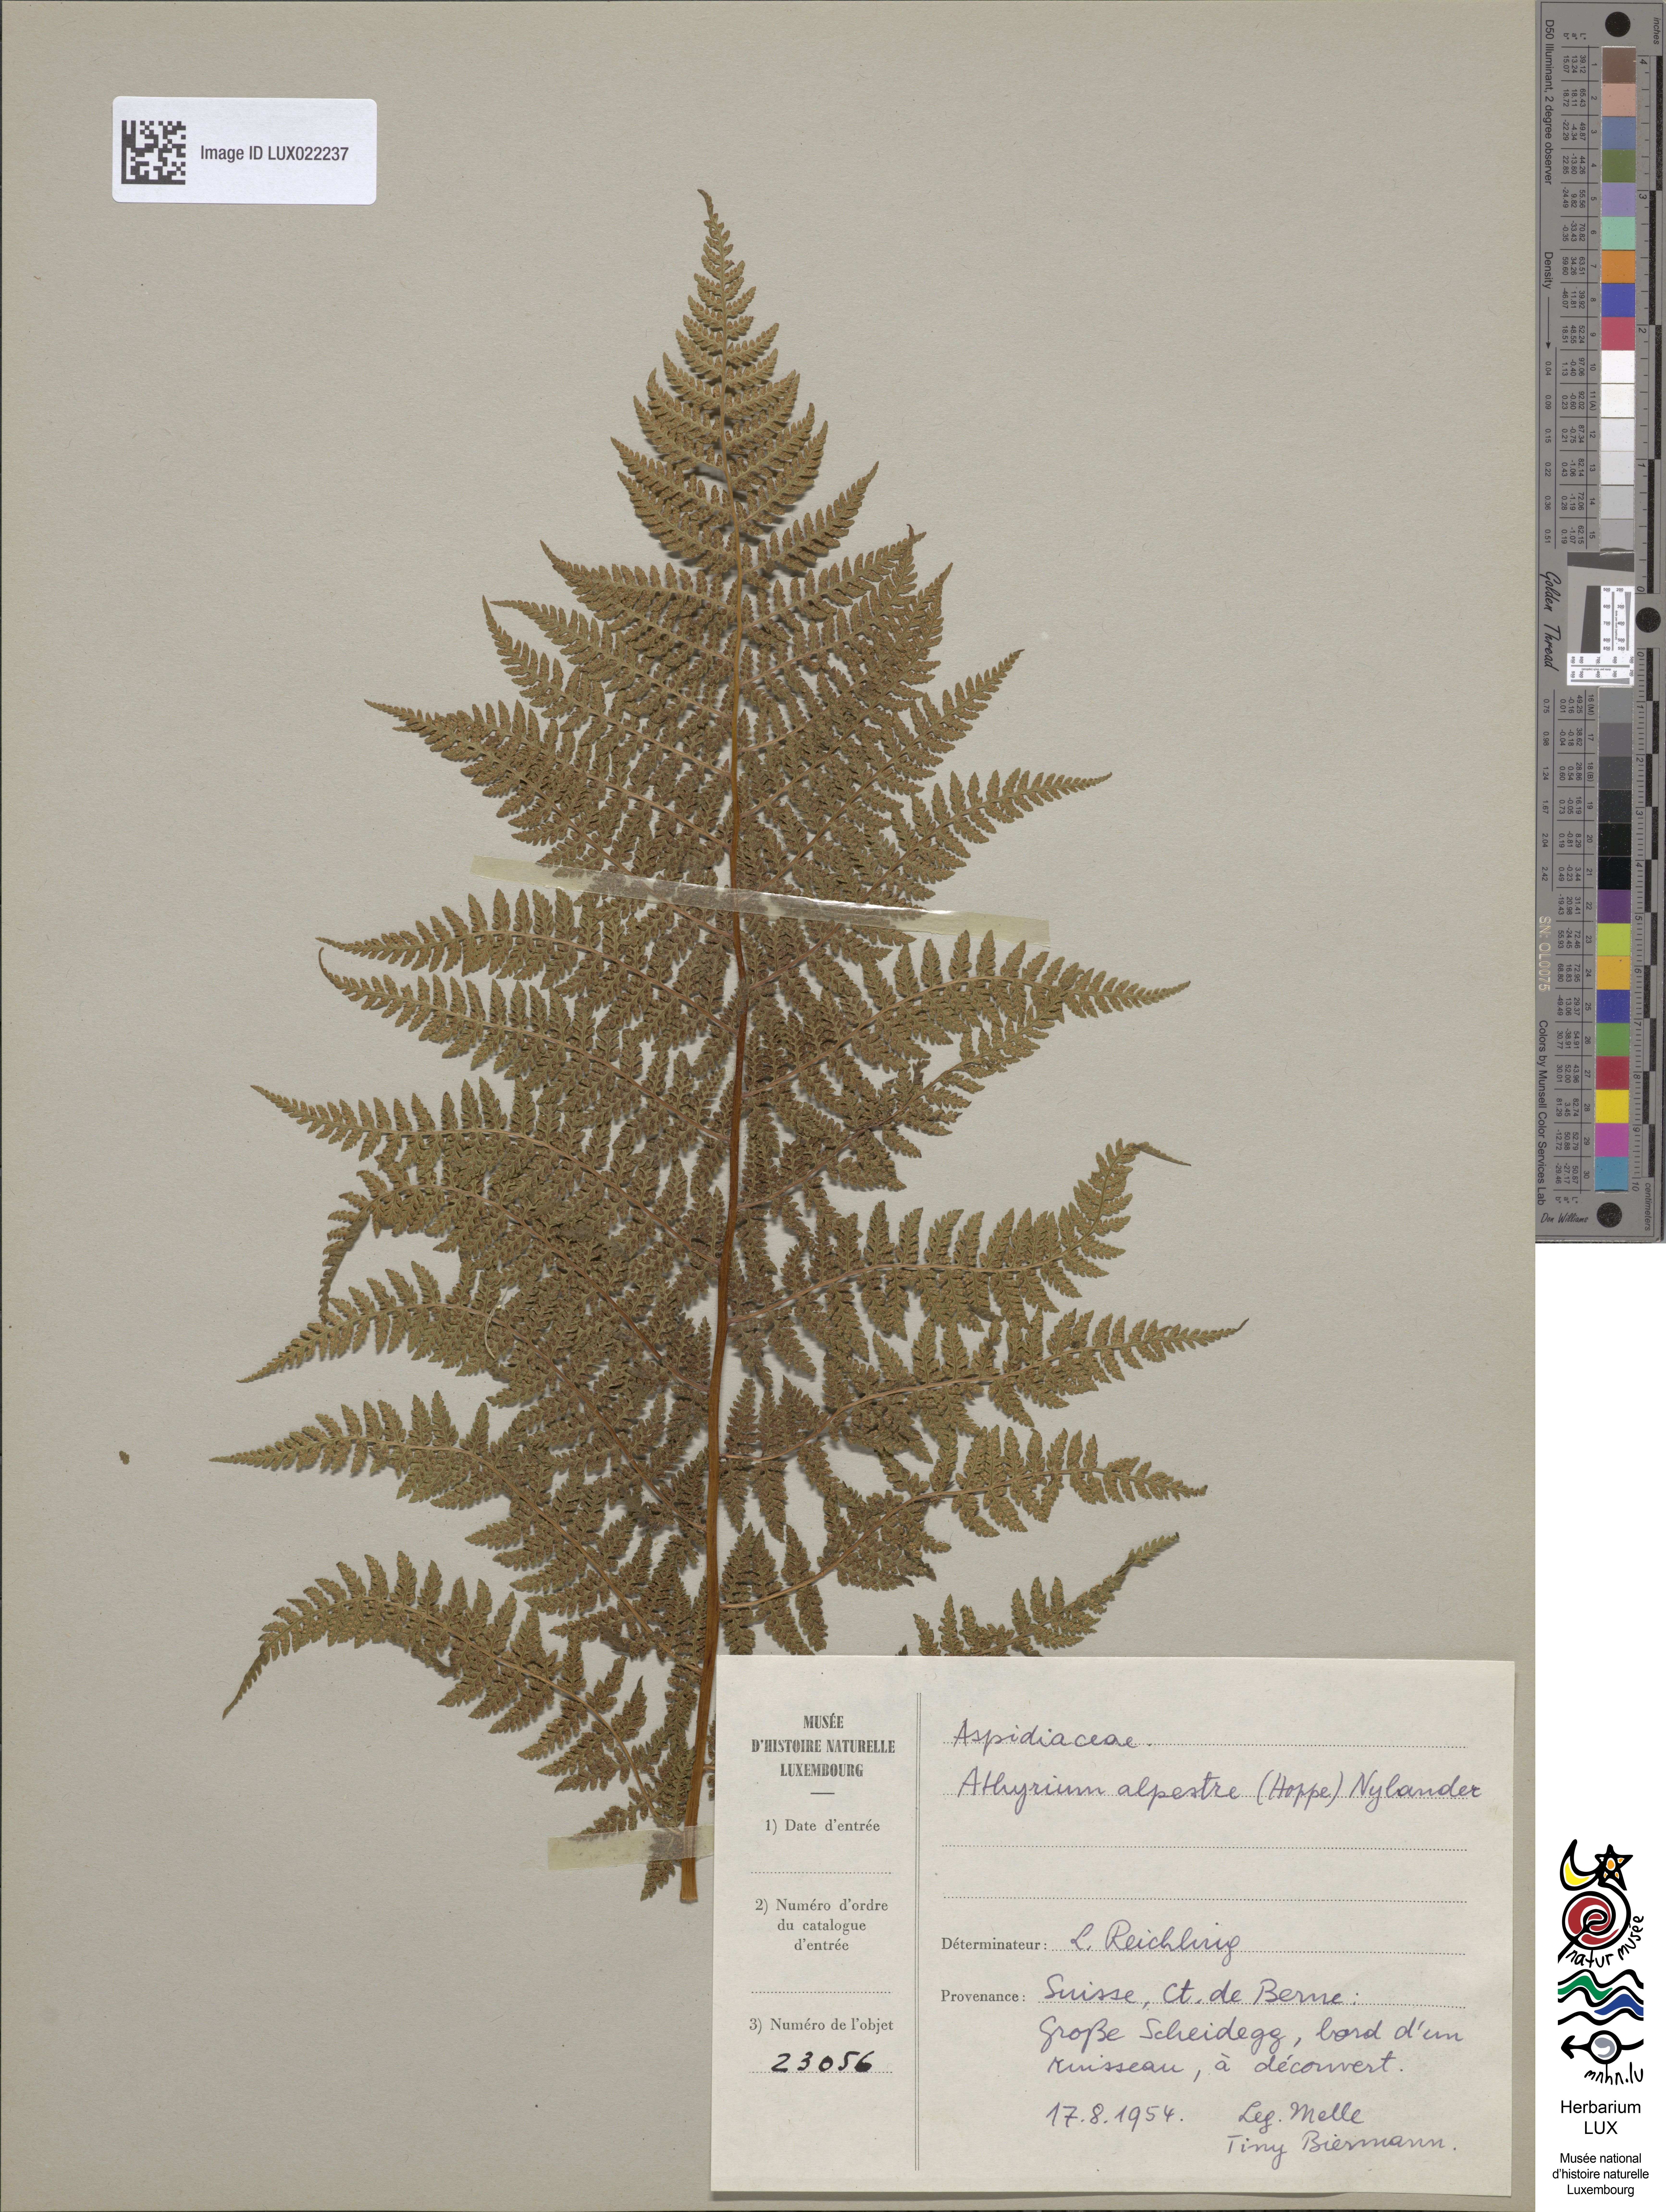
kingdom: Plantae
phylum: Tracheophyta
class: Polypodiopsida
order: Polypodiales
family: Athyriaceae
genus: Pseudathyrium
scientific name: Pseudathyrium alpestre
